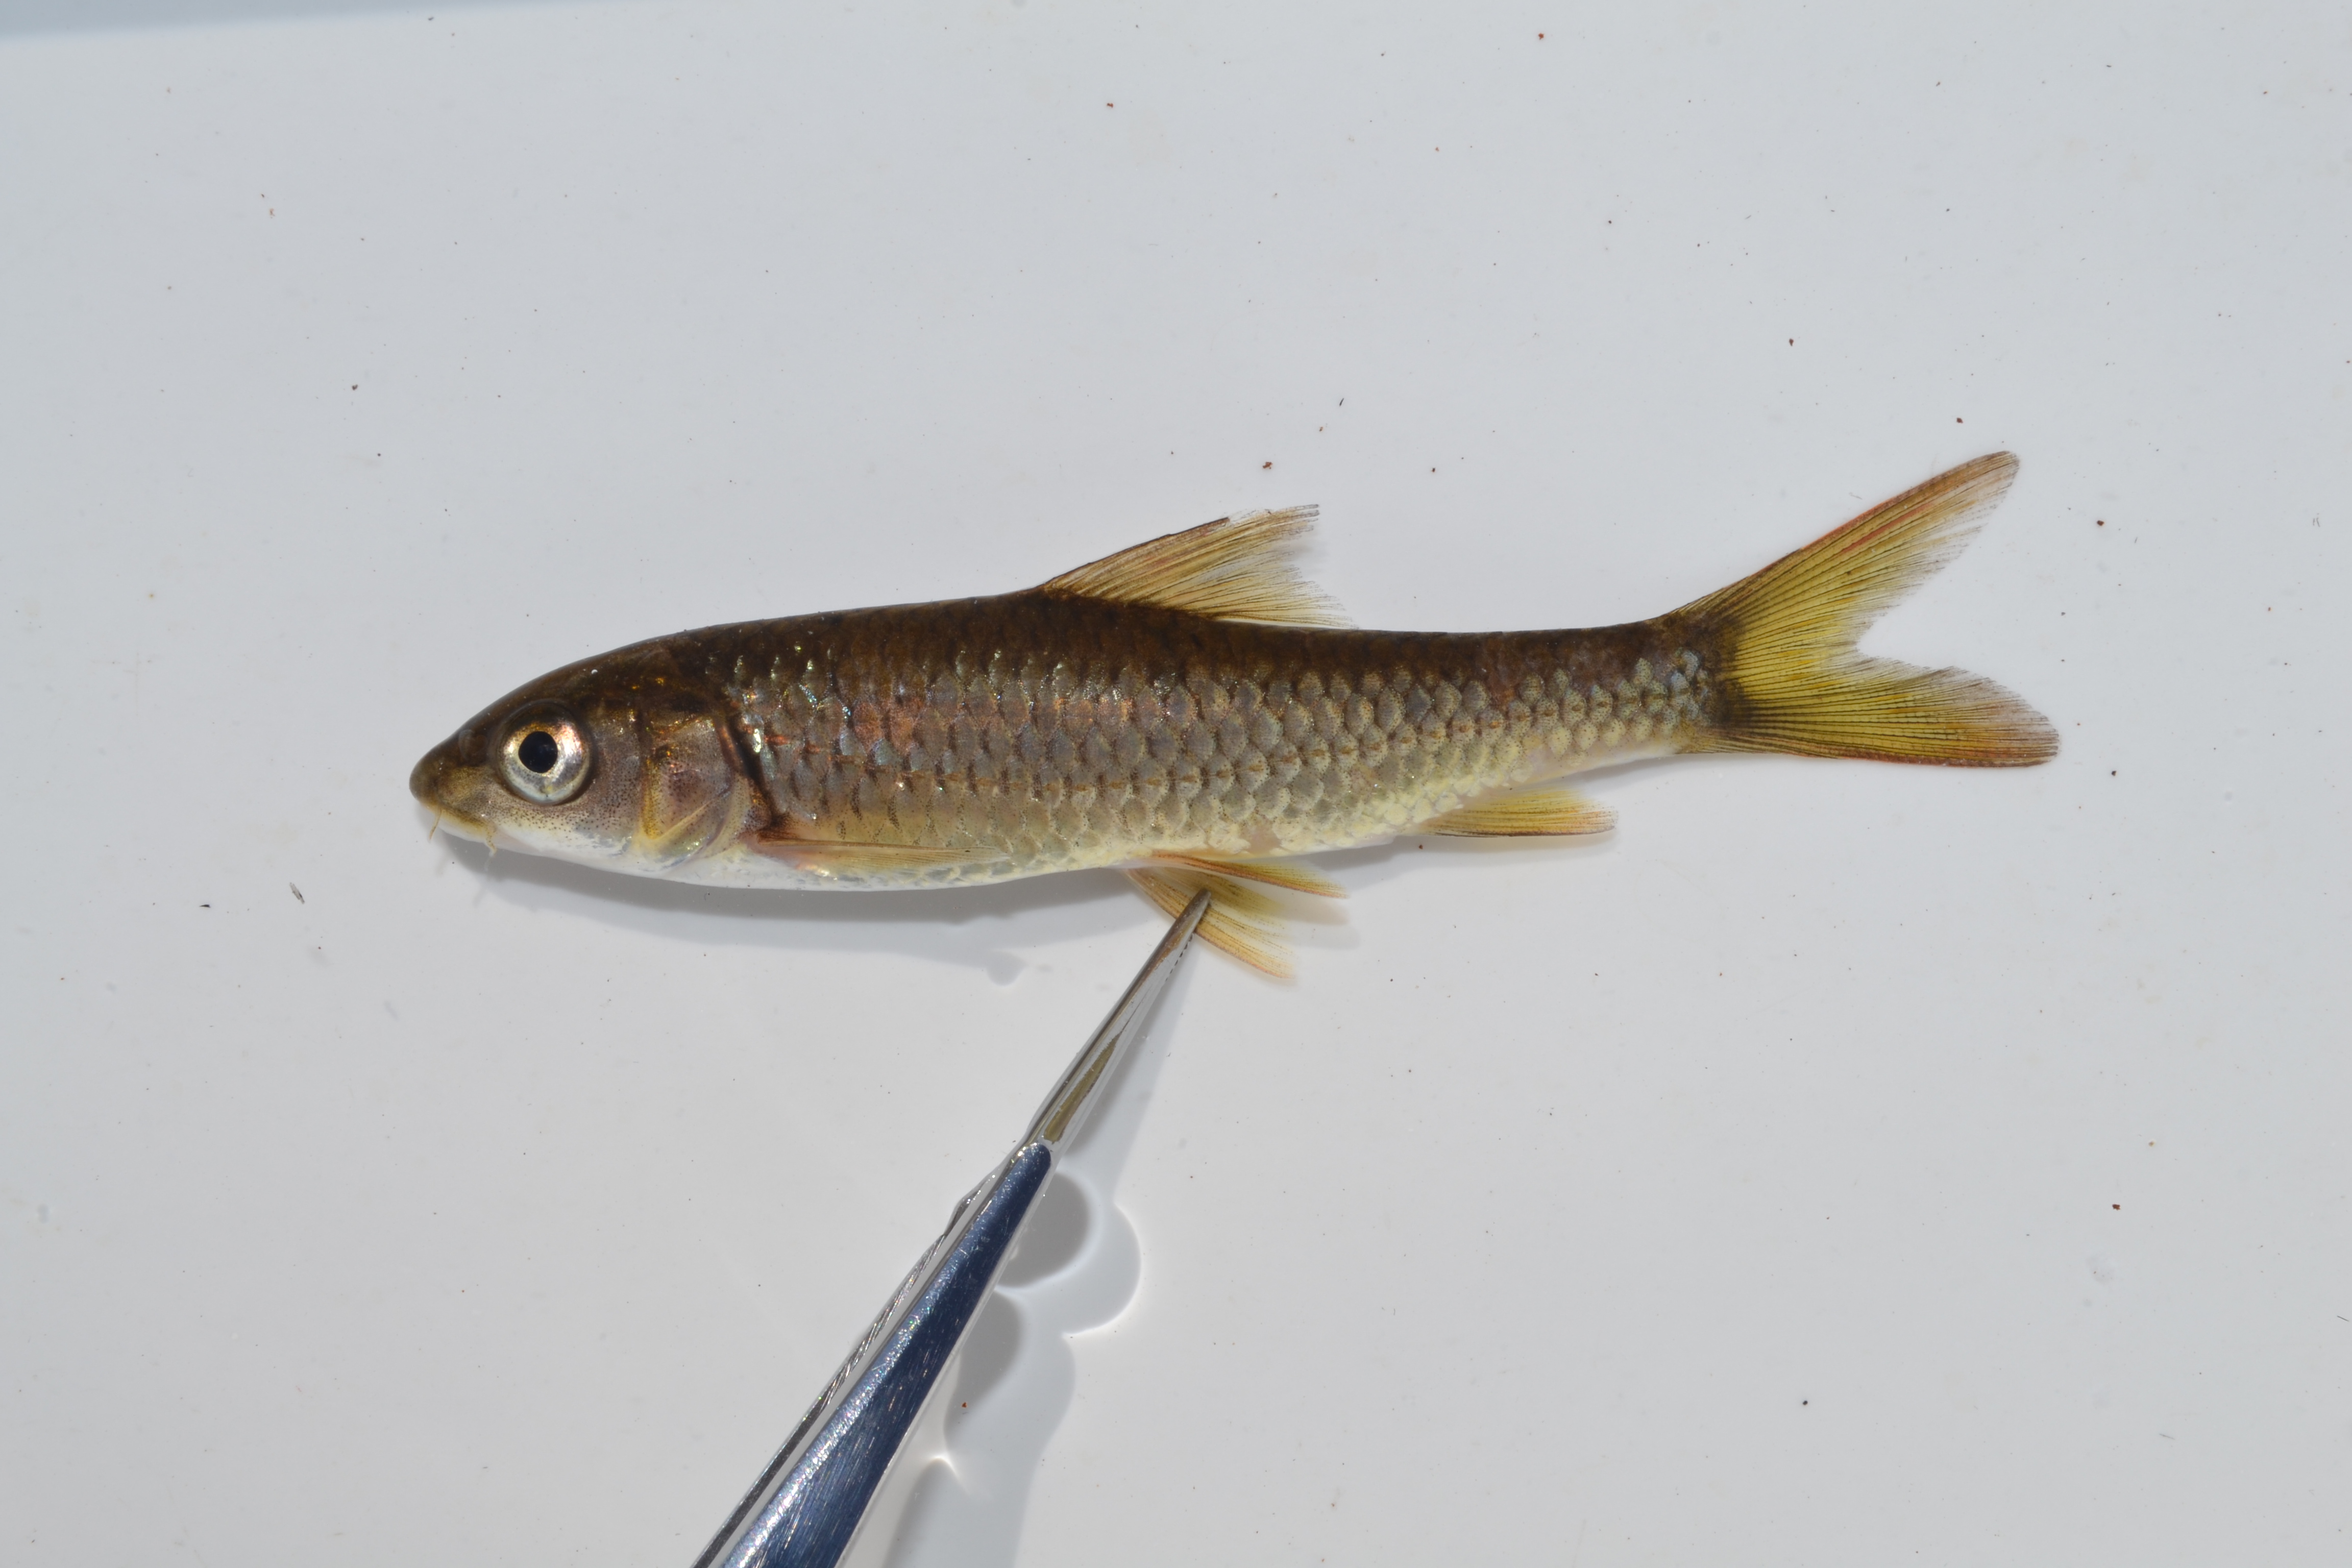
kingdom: Animalia
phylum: Chordata
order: Cypriniformes
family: Cyprinidae
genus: Labeobarbus
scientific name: Labeobarbus marequensis
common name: Largescale yellowfish
